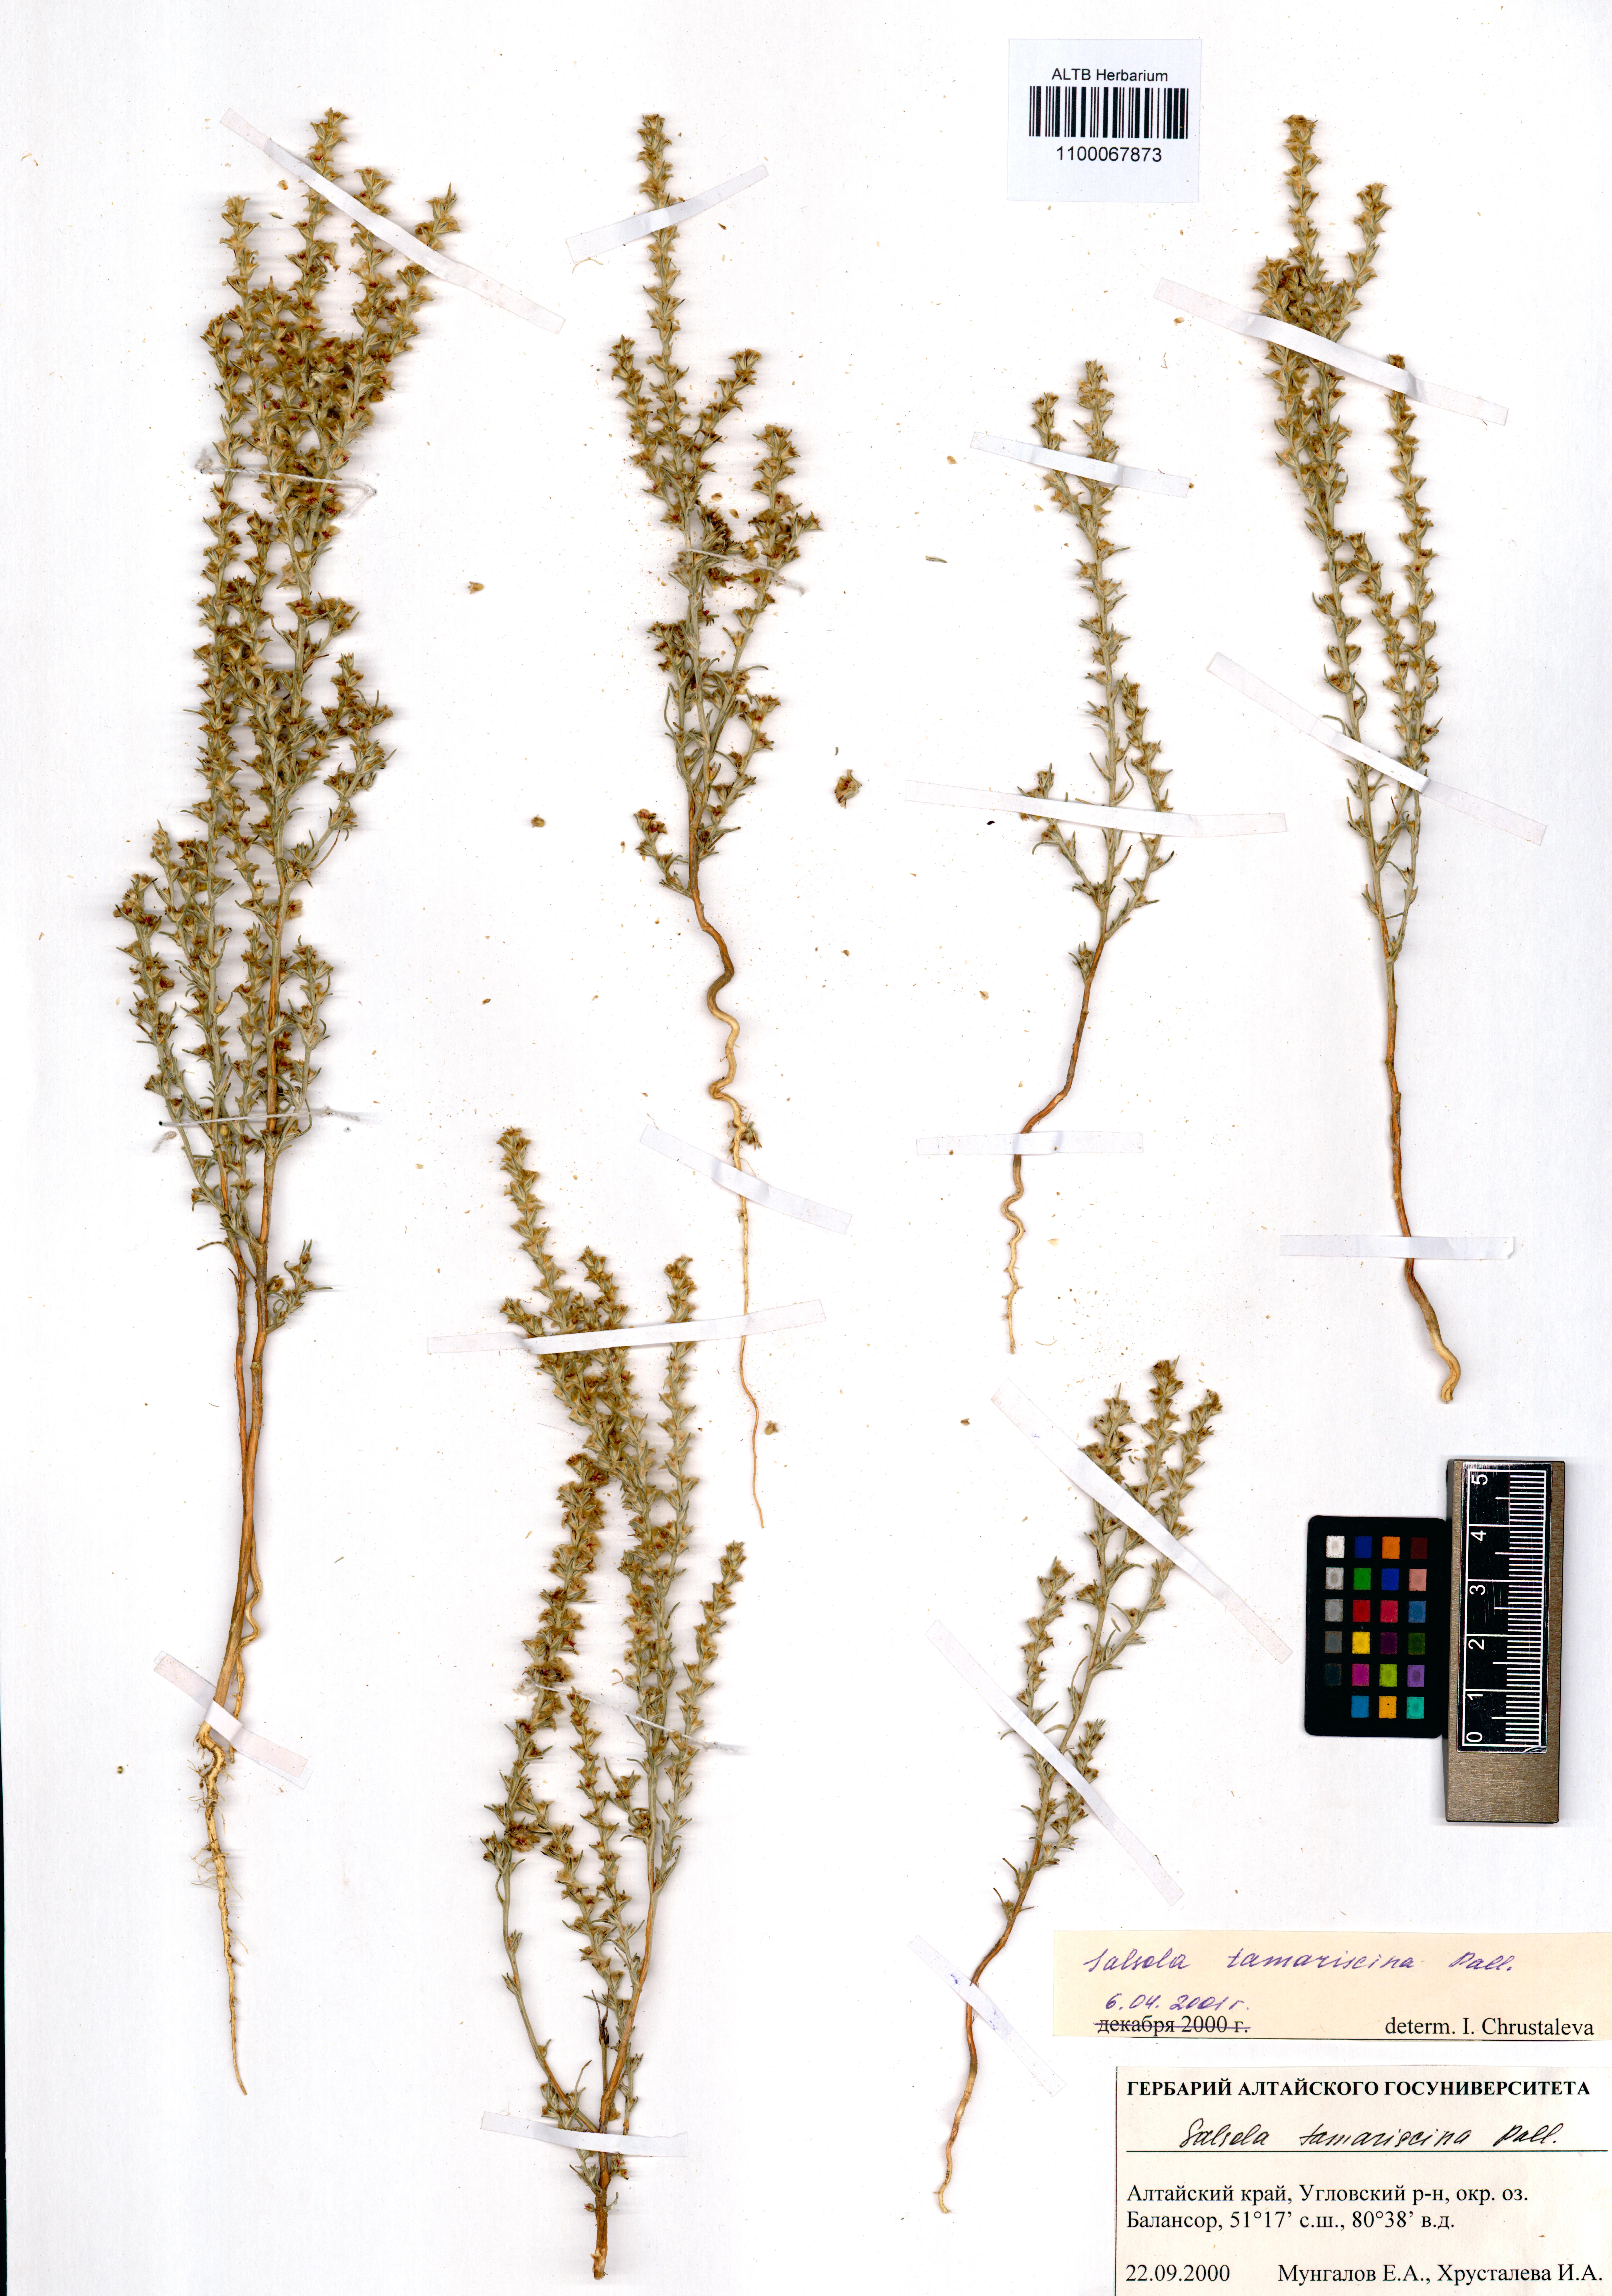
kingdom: Plantae
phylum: Tracheophyta
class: Magnoliopsida
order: Caryophyllales
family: Amaranthaceae
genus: Salsola
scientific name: Salsola tamariscina
